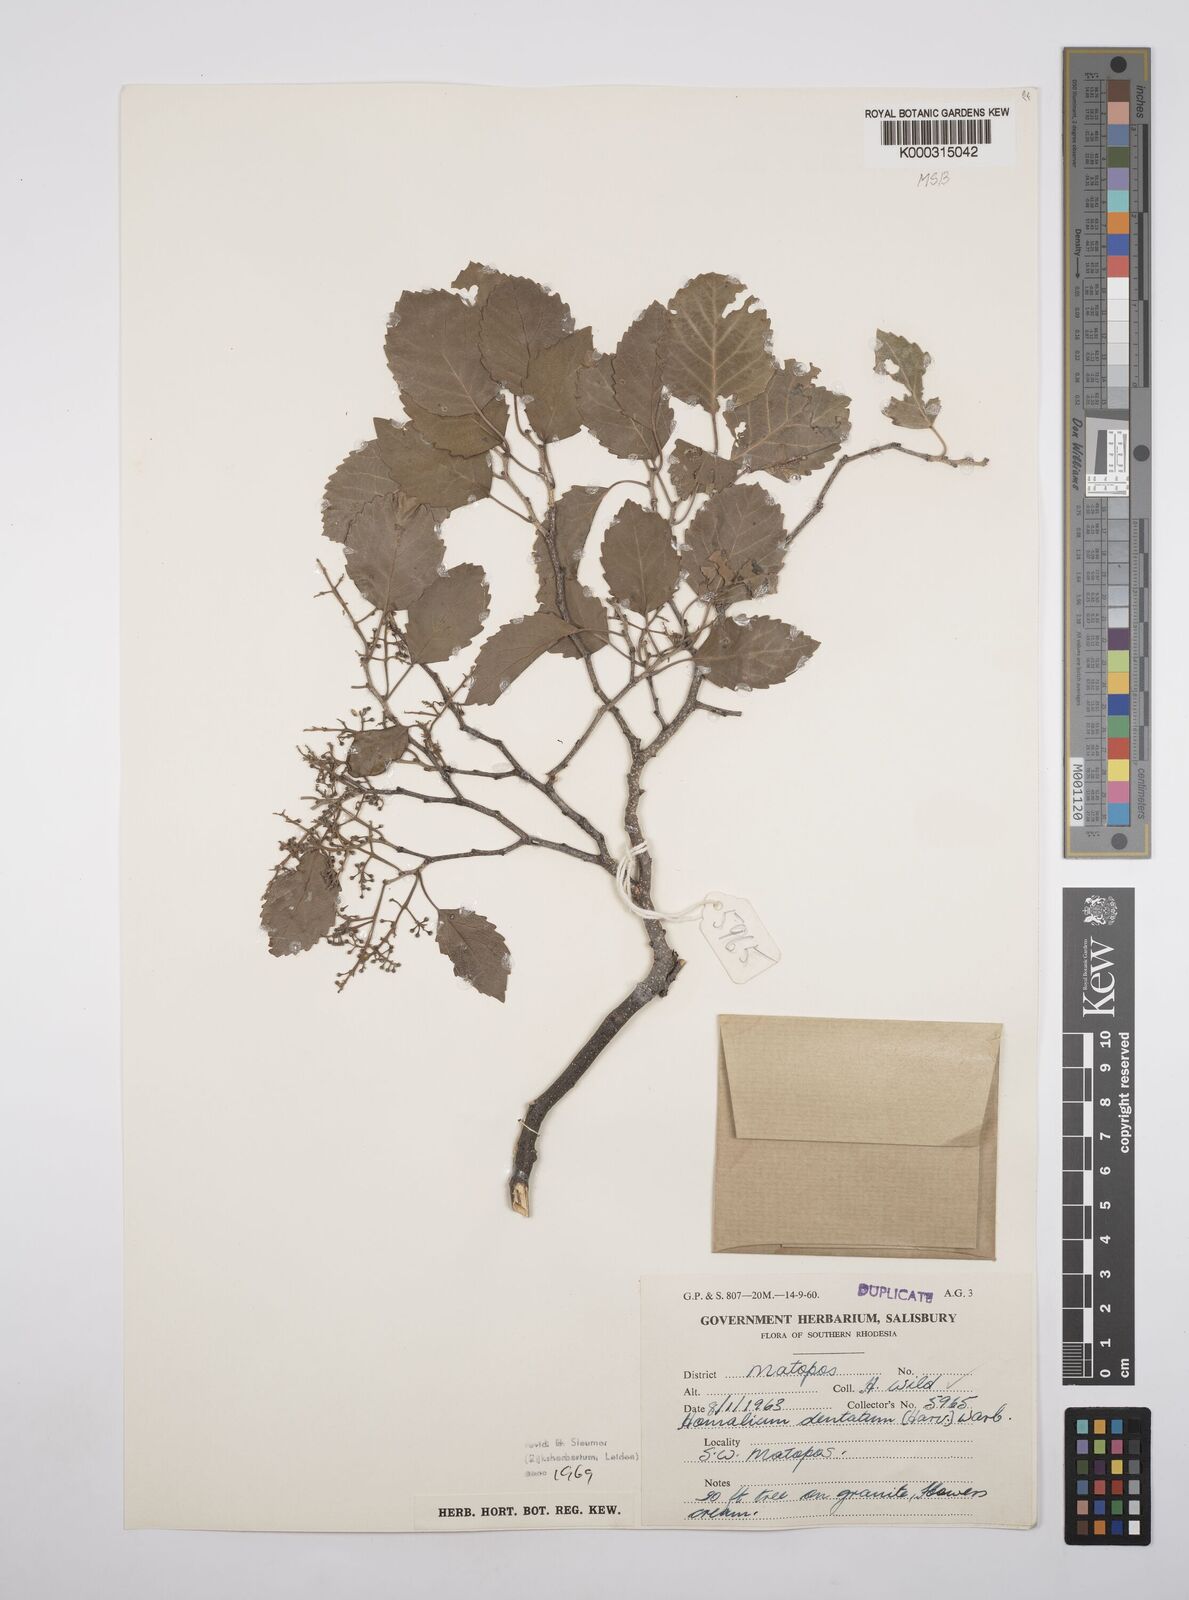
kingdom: Plantae
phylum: Tracheophyta
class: Magnoliopsida
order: Malpighiales
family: Salicaceae
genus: Homalium
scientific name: Homalium dentatum
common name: Brown ironwood
